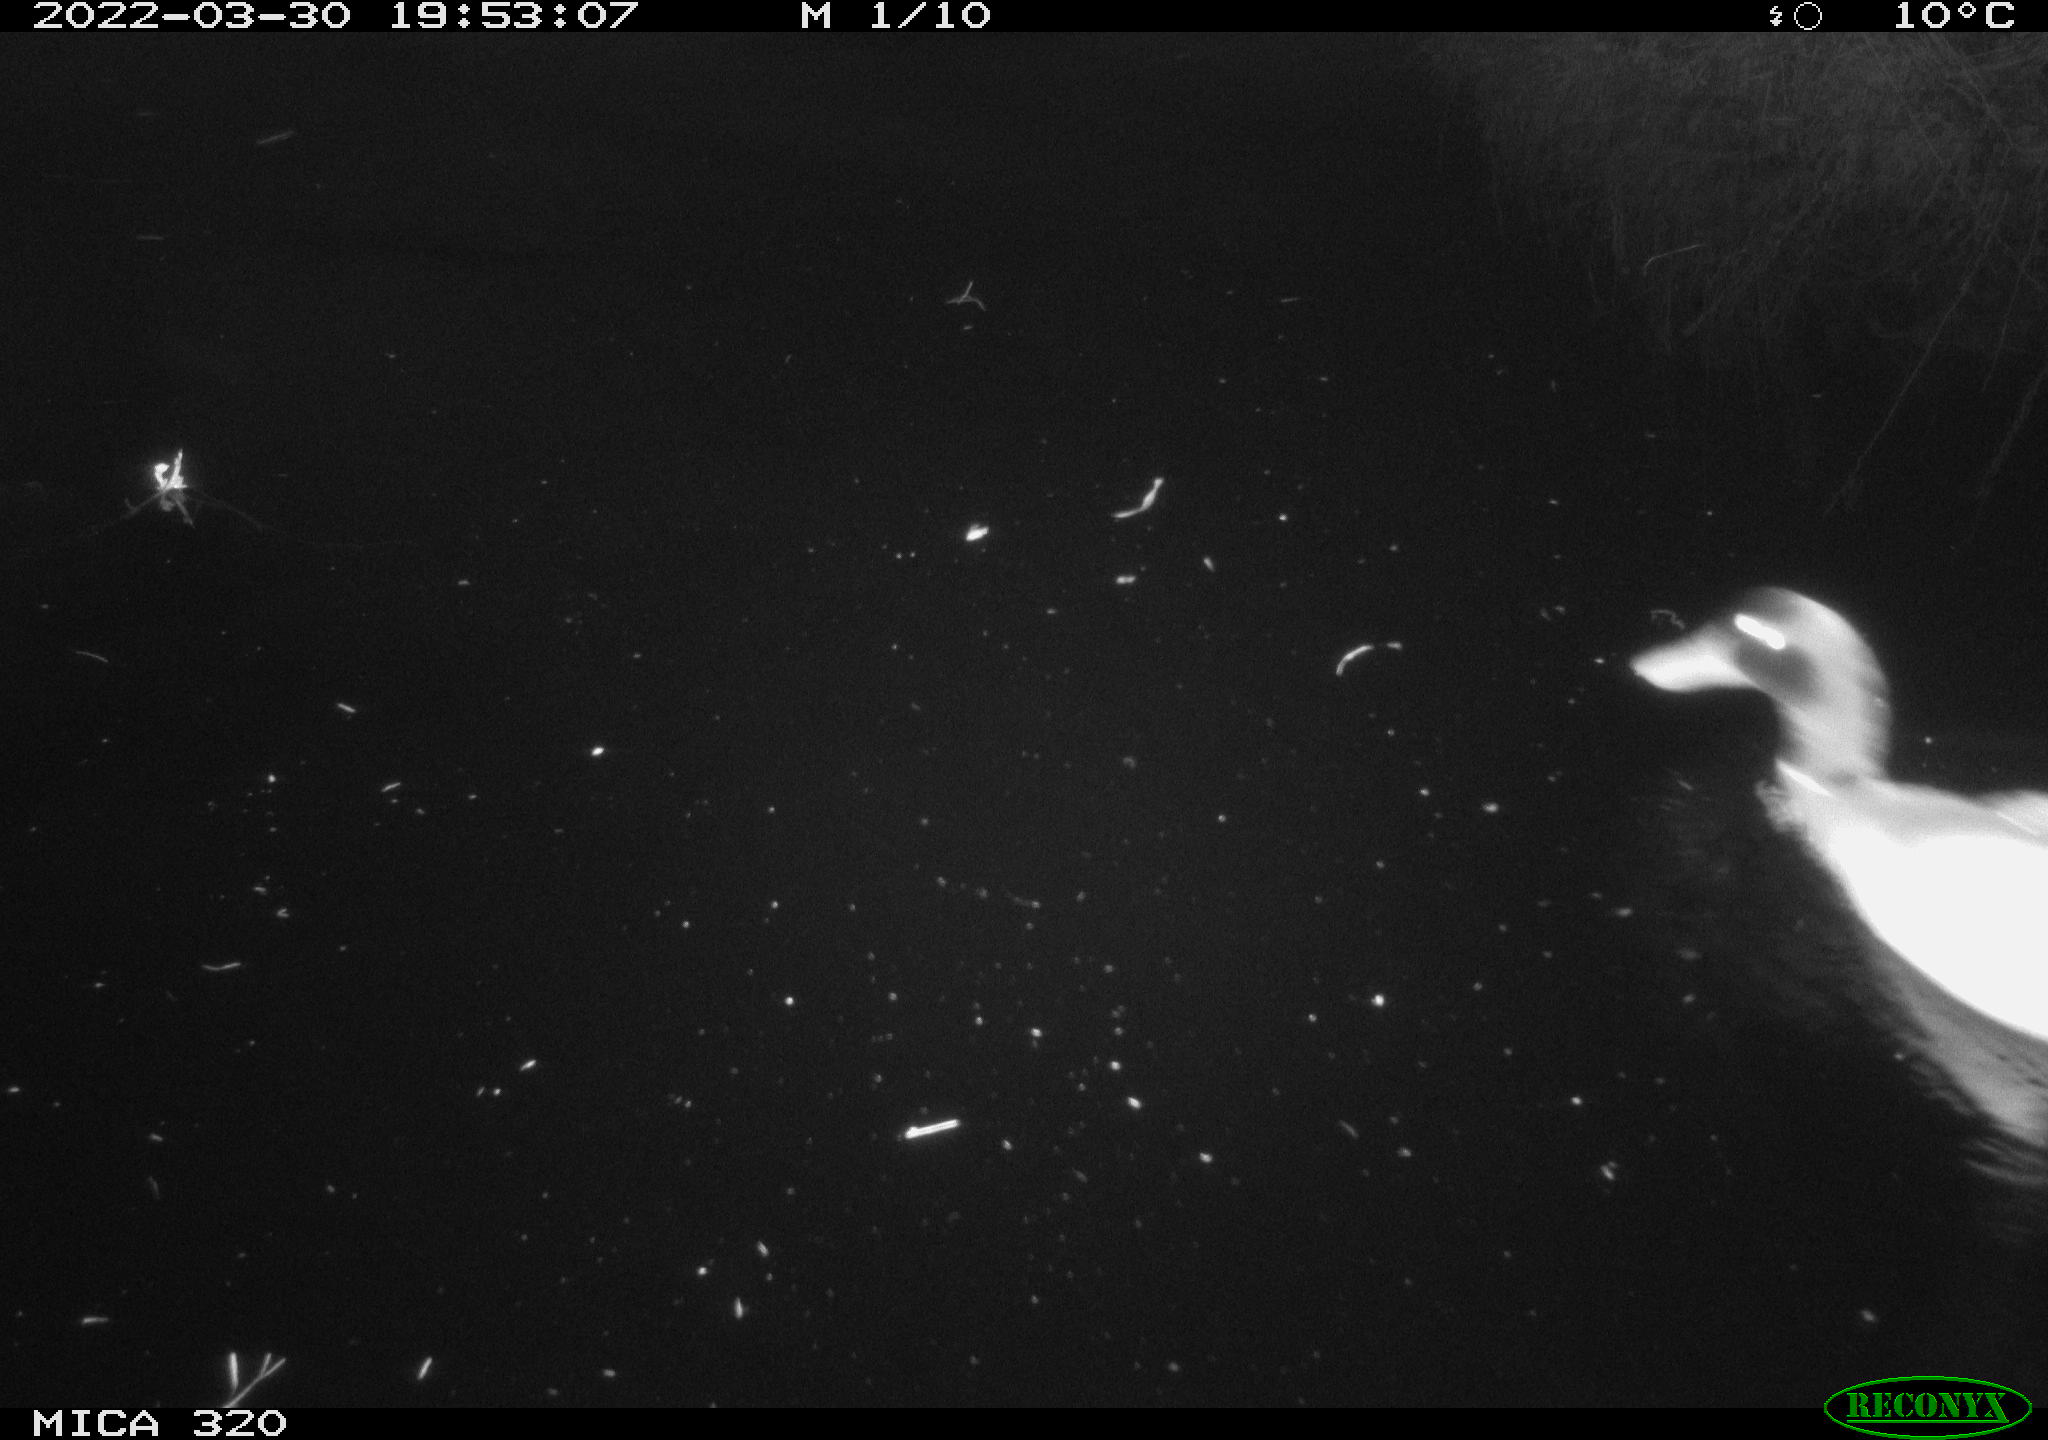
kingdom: Animalia
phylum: Chordata
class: Aves
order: Anseriformes
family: Anatidae
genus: Anas
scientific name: Anas platyrhynchos
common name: Mallard
